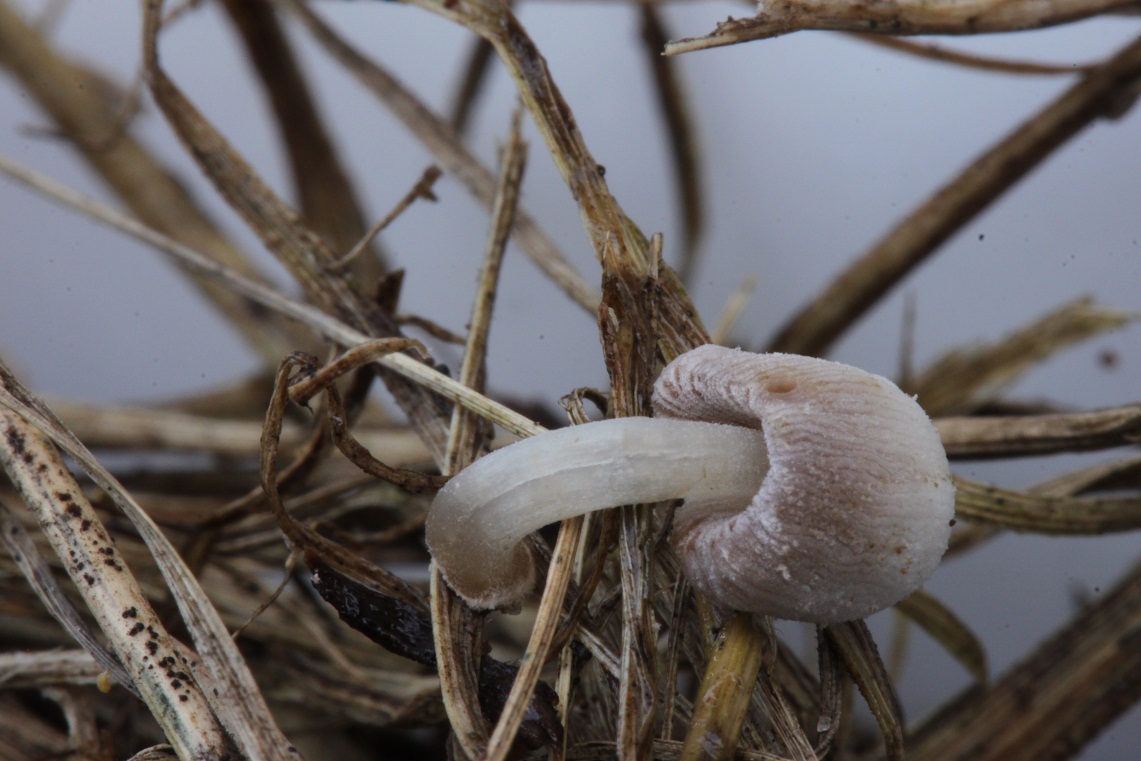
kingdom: Fungi
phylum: Basidiomycota
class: Agaricomycetes
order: Agaricales
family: Psathyrellaceae
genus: Coprinopsis
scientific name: Coprinopsis tigrinella
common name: brunfnugget blækhat
